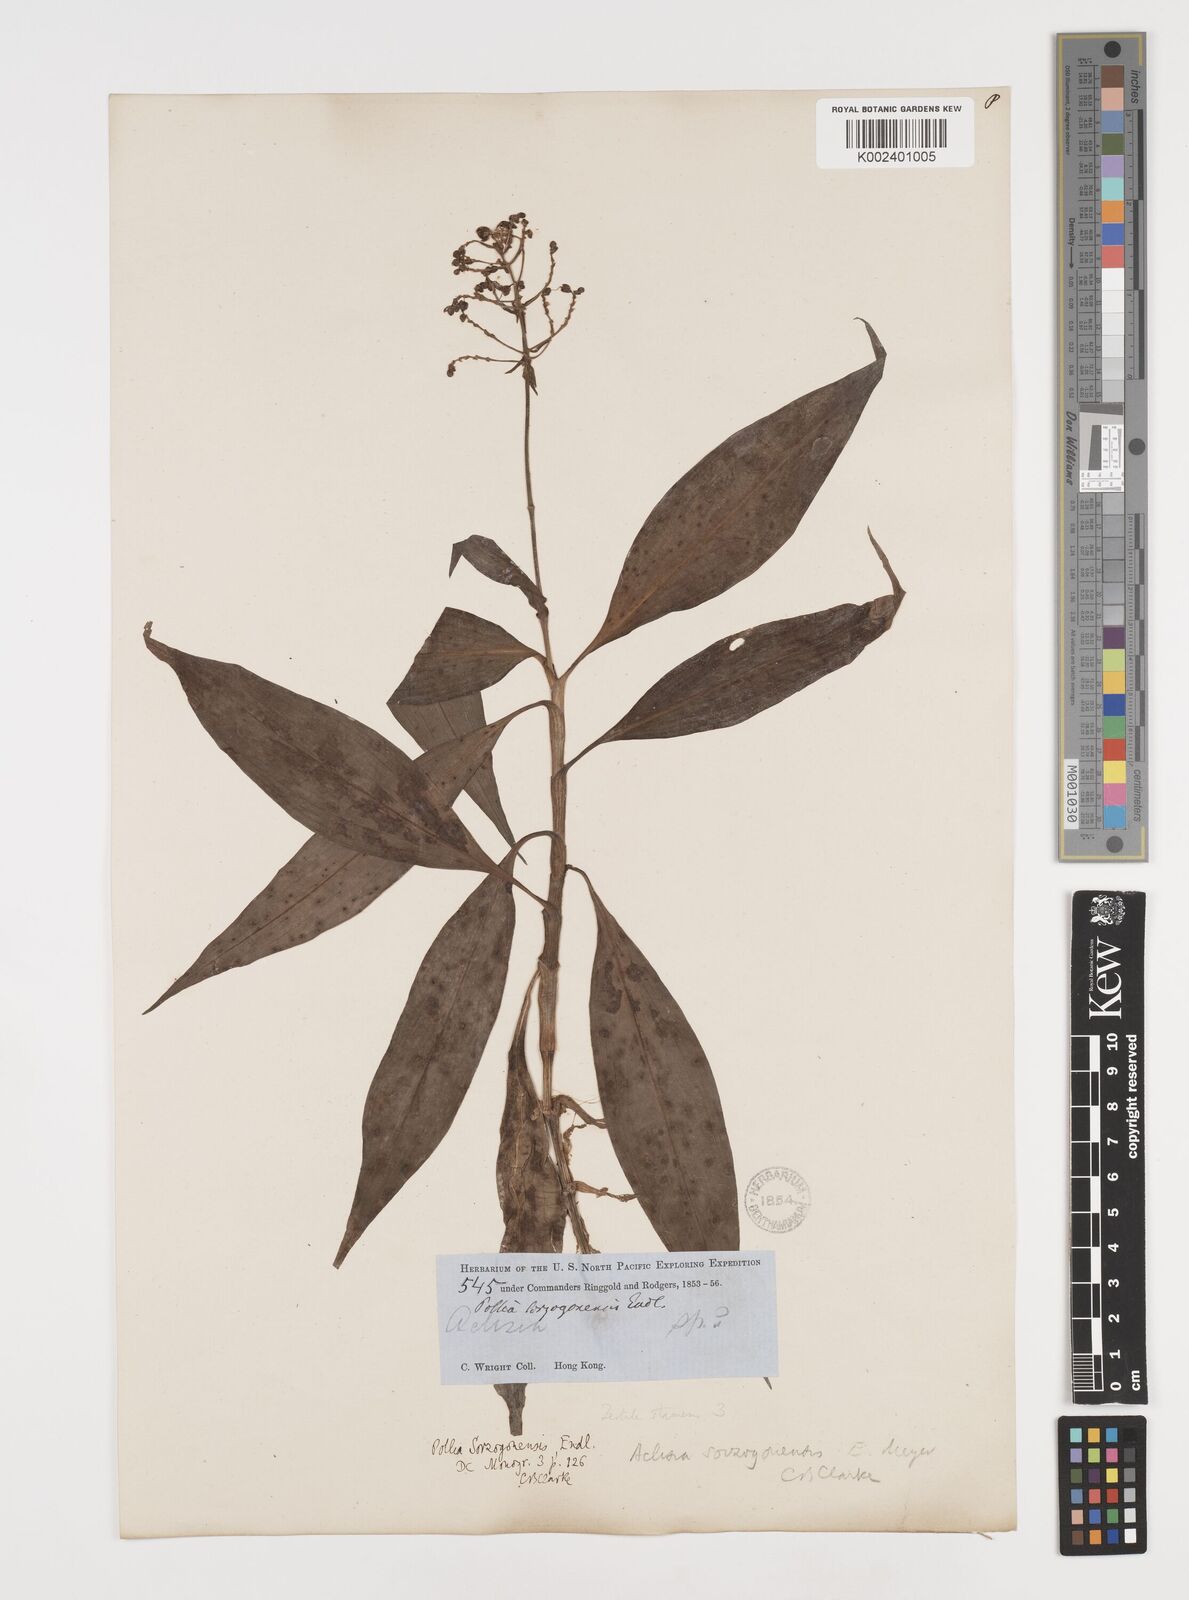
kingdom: Plantae
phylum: Tracheophyta
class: Liliopsida
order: Commelinales
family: Commelinaceae
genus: Pollia
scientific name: Pollia secundiflora
